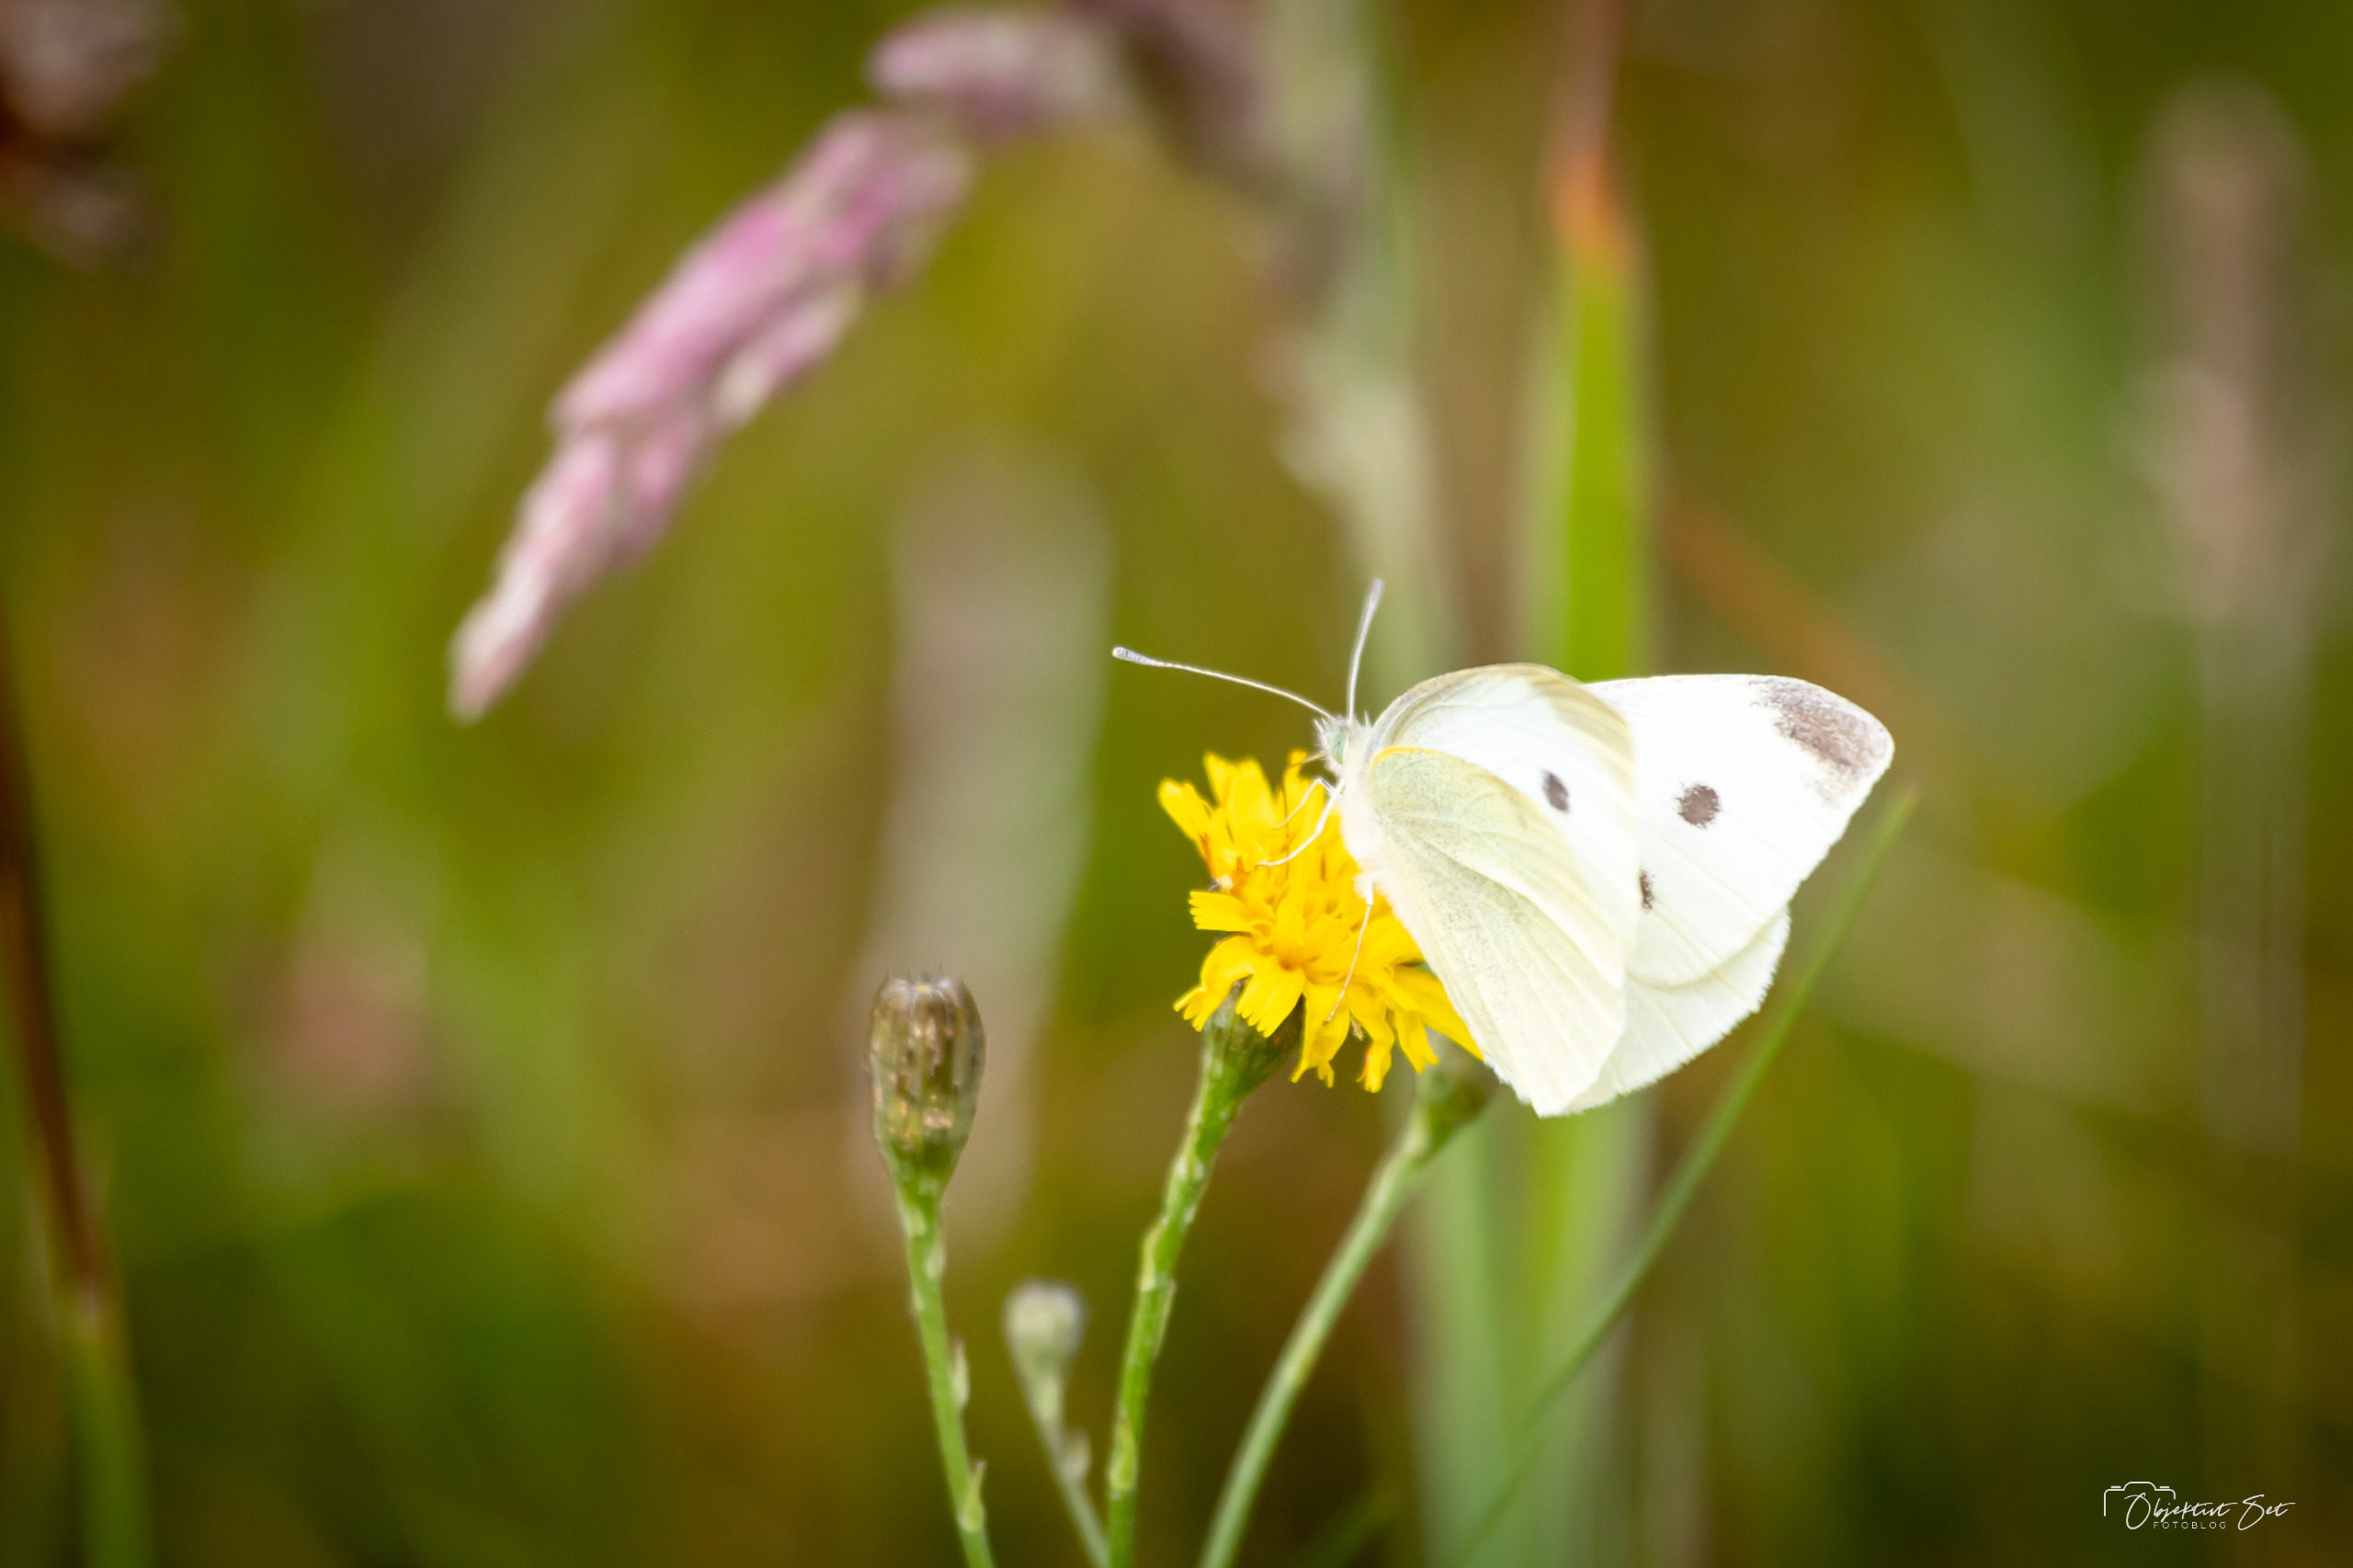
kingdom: Animalia
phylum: Arthropoda
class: Insecta
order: Lepidoptera
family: Pieridae
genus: Pieris
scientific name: Pieris rapae
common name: Lille kålsommerfugl
